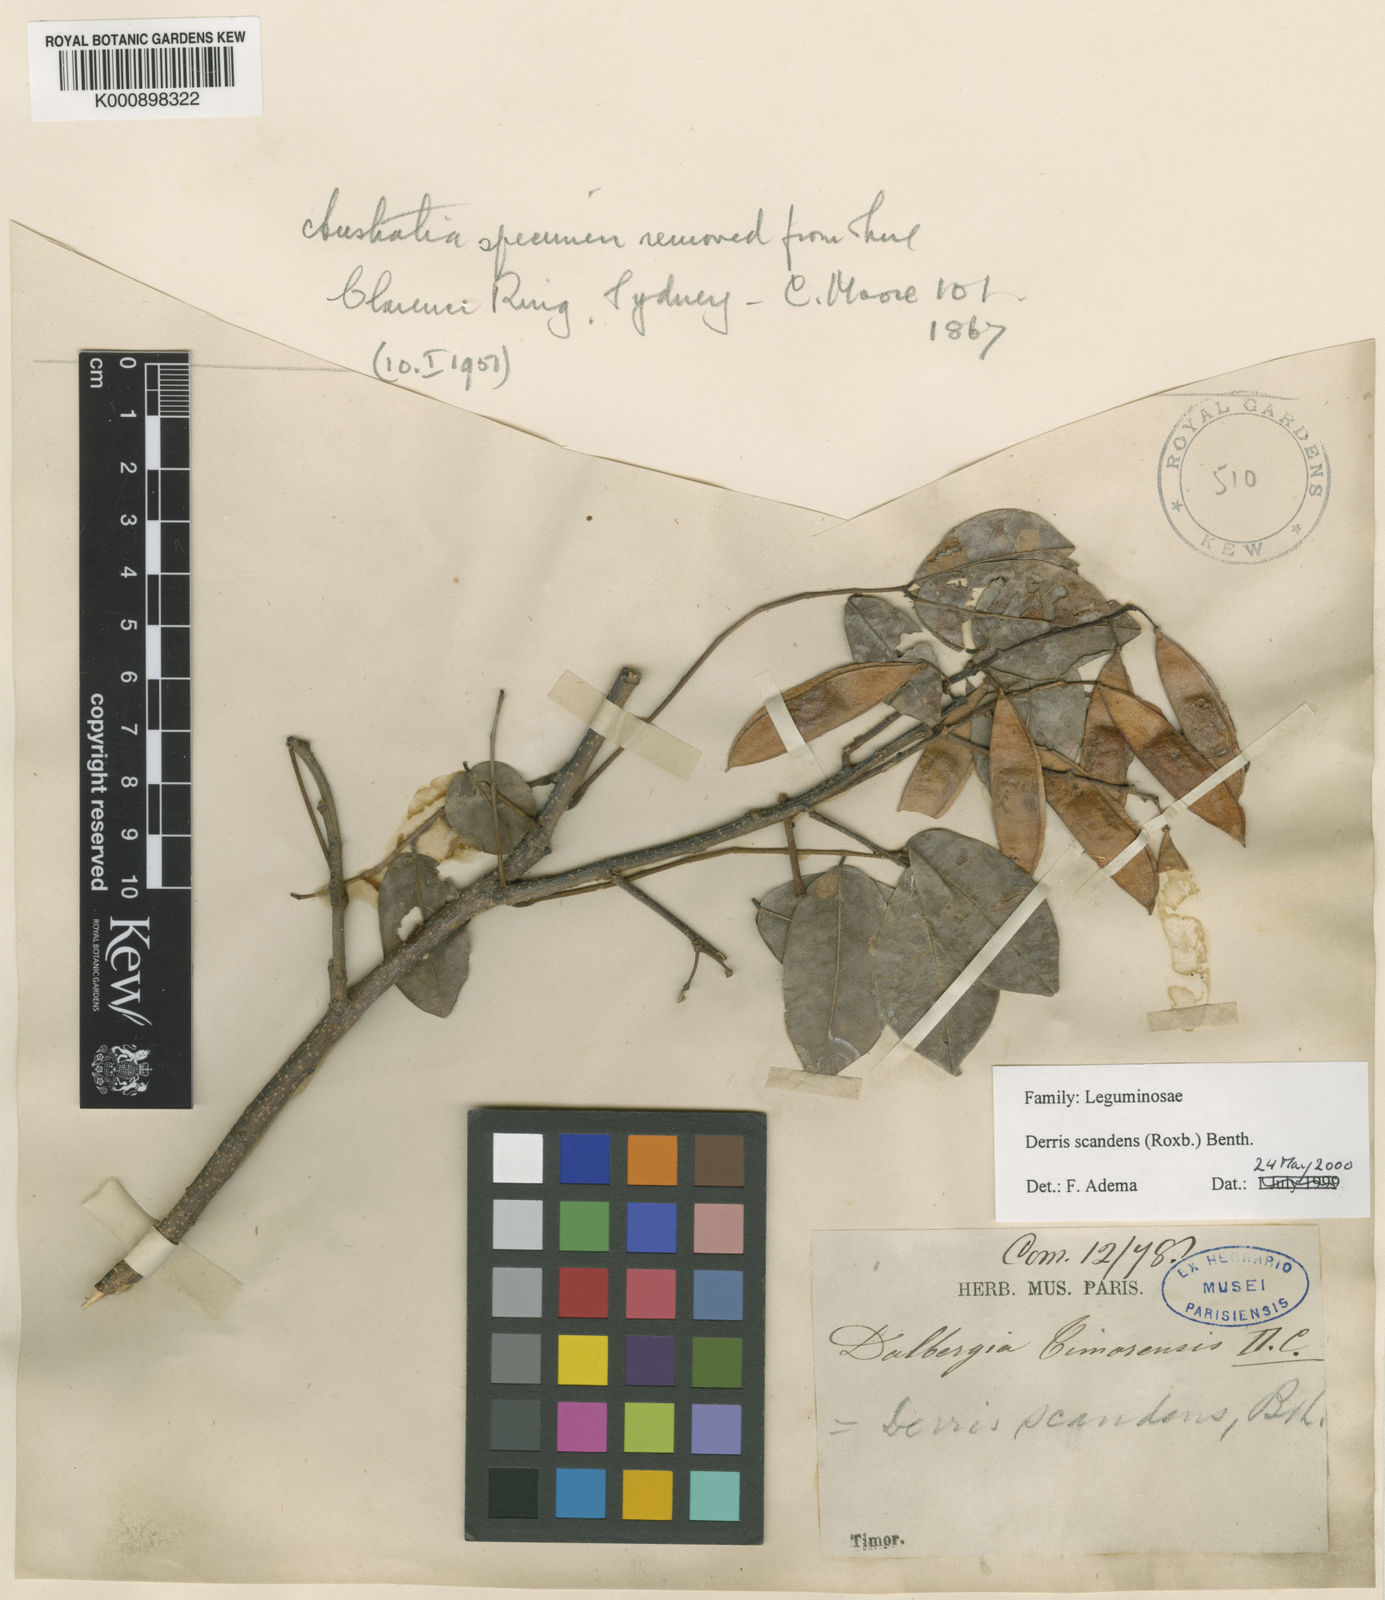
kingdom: Plantae
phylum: Tracheophyta
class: Magnoliopsida
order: Fabales
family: Fabaceae
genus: Brachypterum
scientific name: Brachypterum scandens
